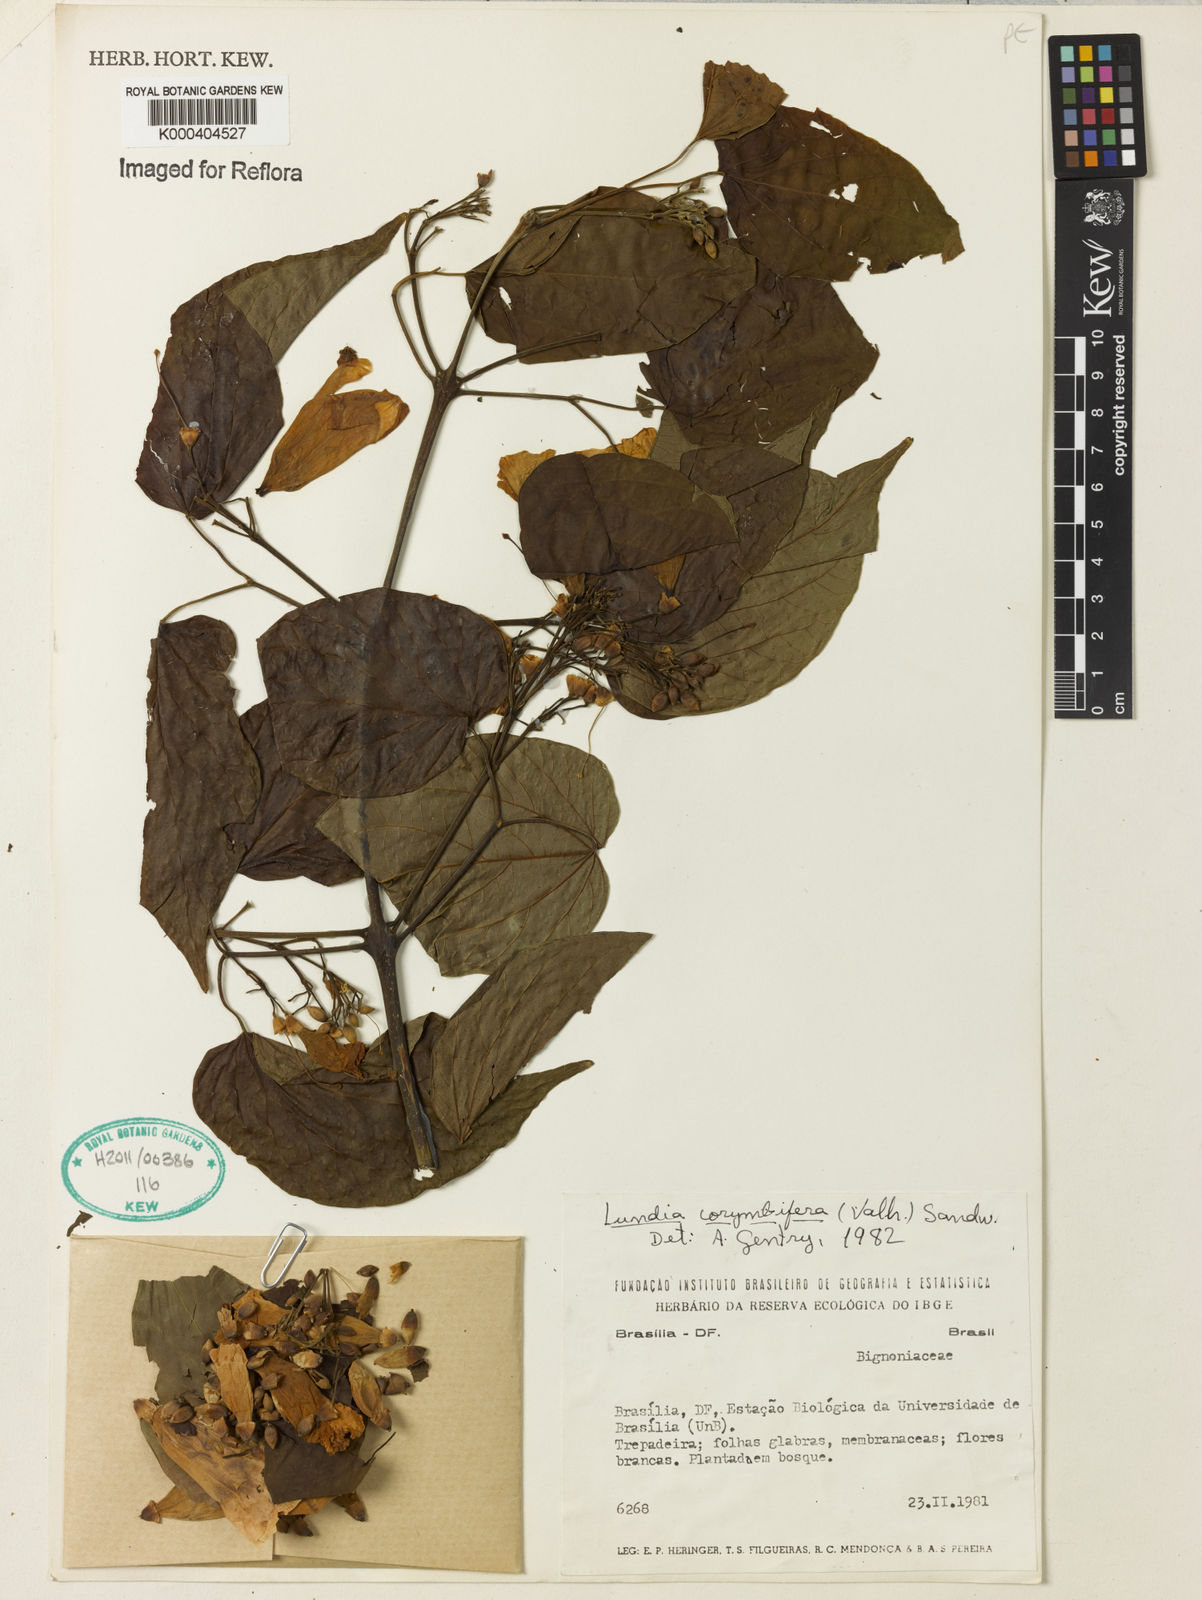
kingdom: Plantae
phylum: Tracheophyta
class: Magnoliopsida
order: Lamiales
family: Bignoniaceae
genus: Lundia
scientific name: Lundia corymbifera
